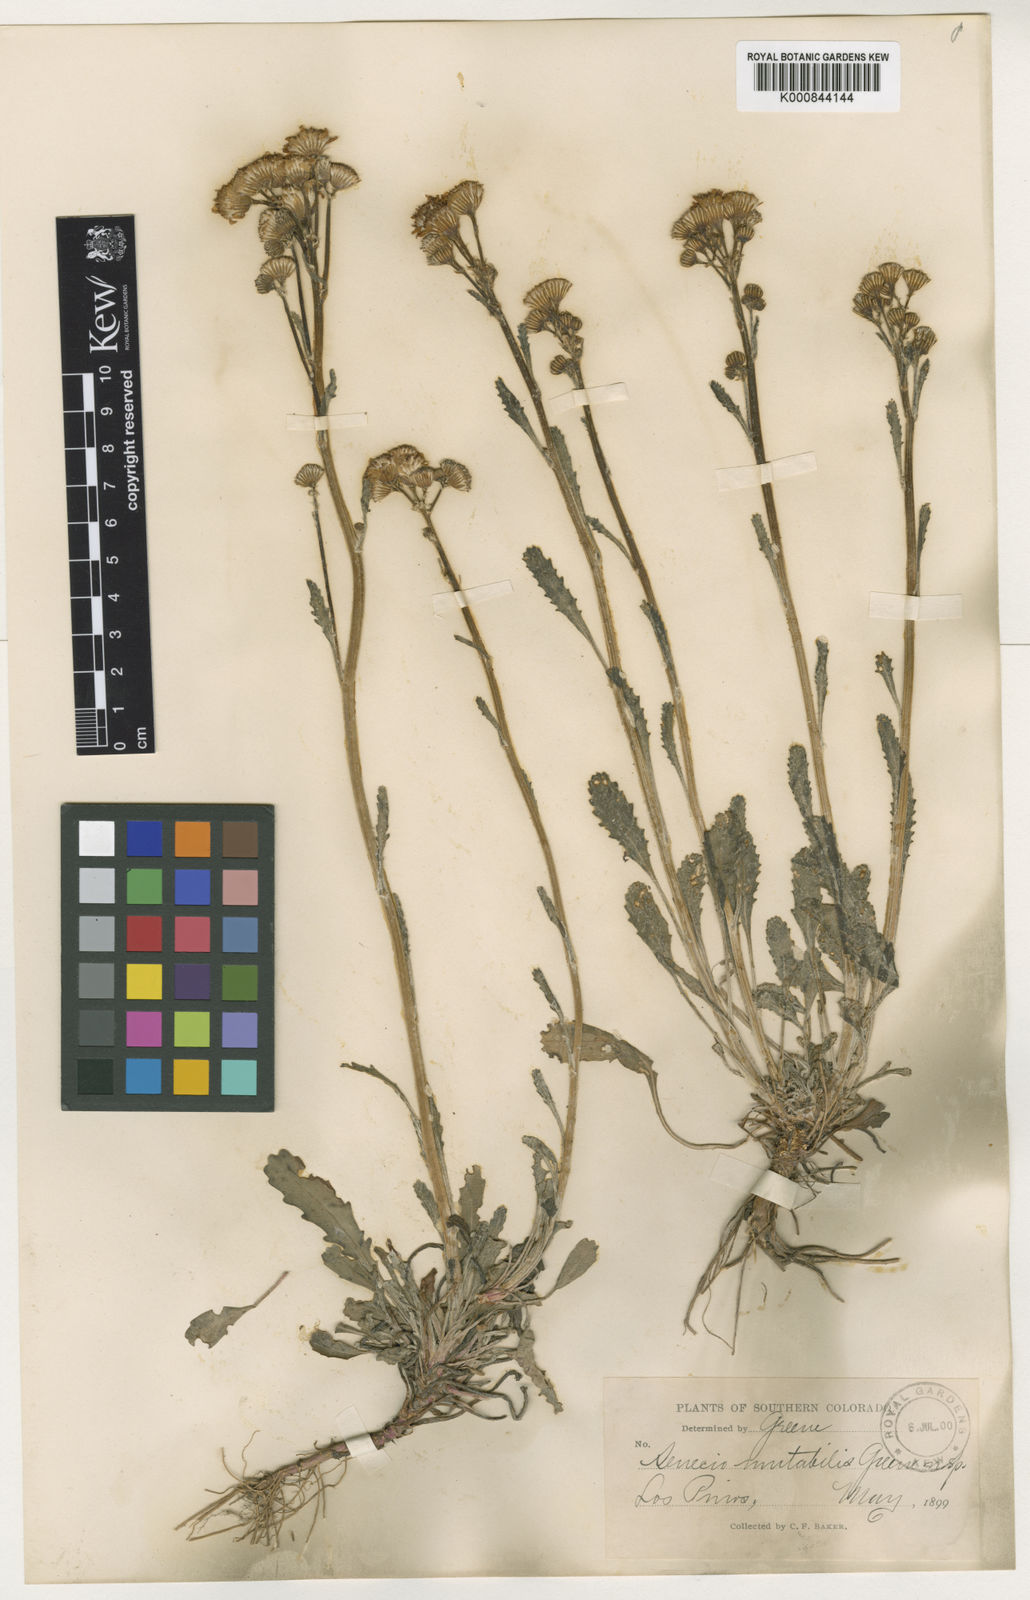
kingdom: Plantae
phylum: Tracheophyta
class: Magnoliopsida
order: Asterales
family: Asteraceae
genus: Packera
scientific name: Packera
